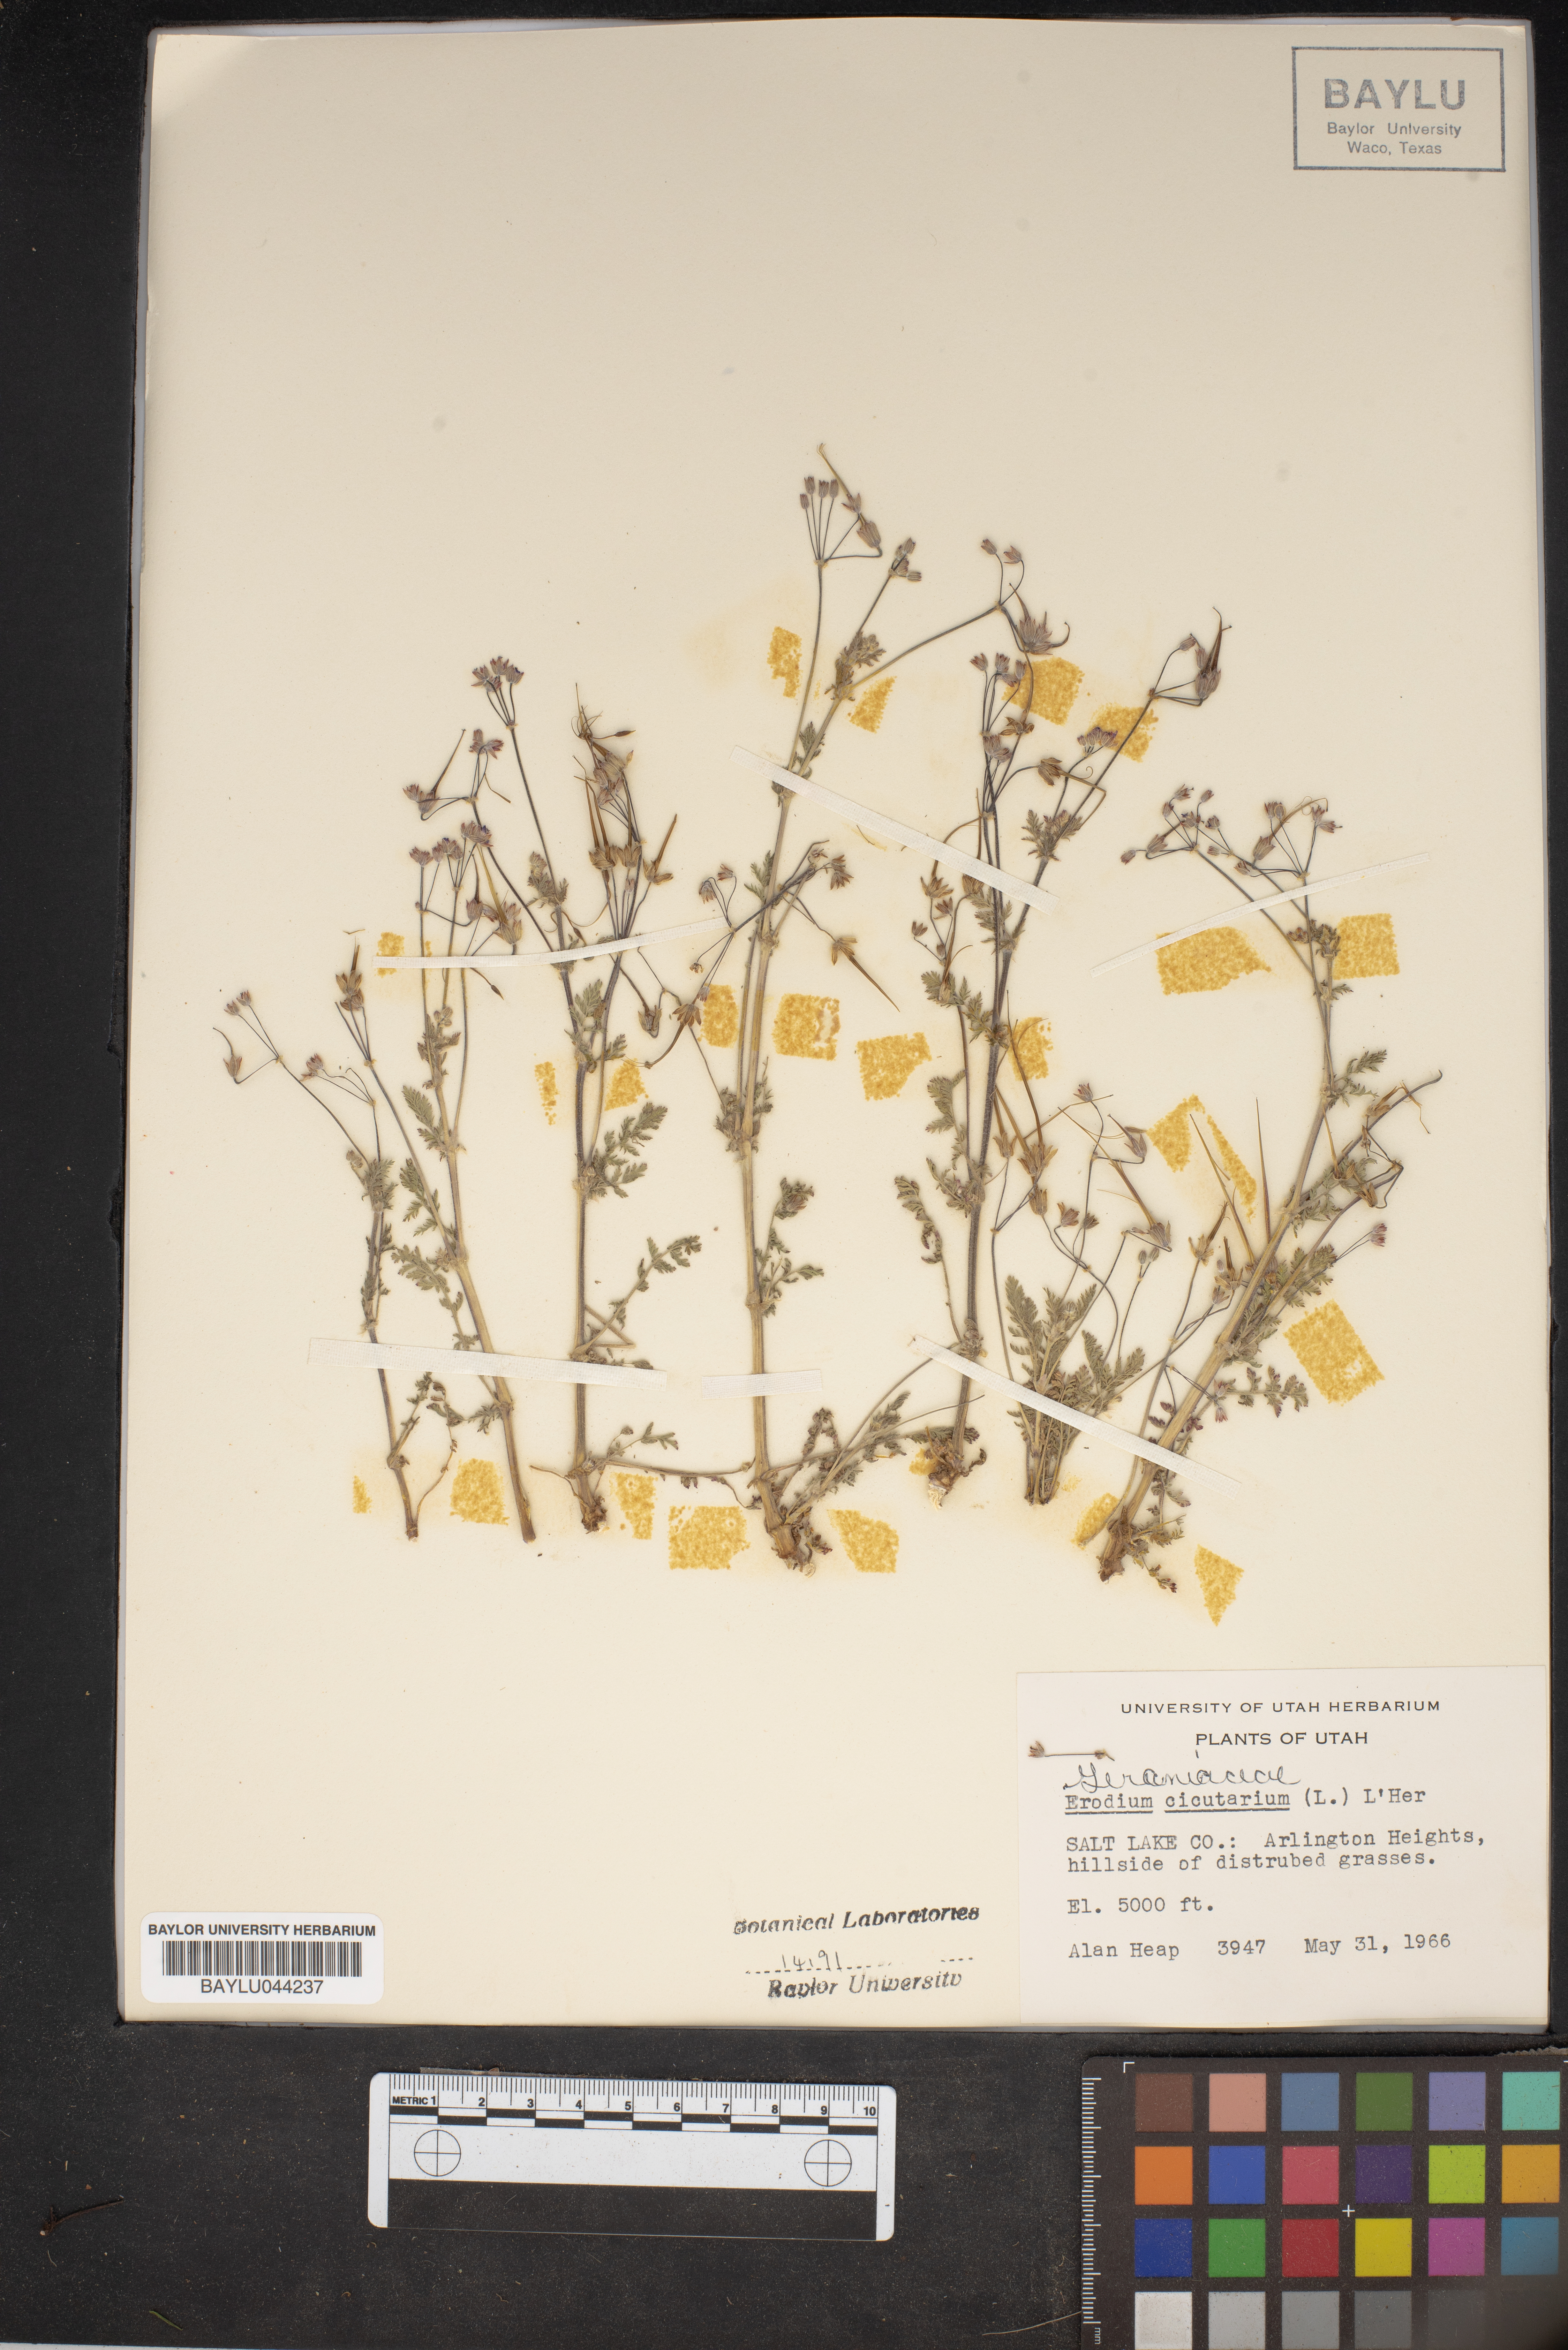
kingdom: Plantae
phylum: Tracheophyta
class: Magnoliopsida
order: Geraniales
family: Geraniaceae
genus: Erodium
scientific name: Erodium cicutarium
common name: Common stork's-bill
